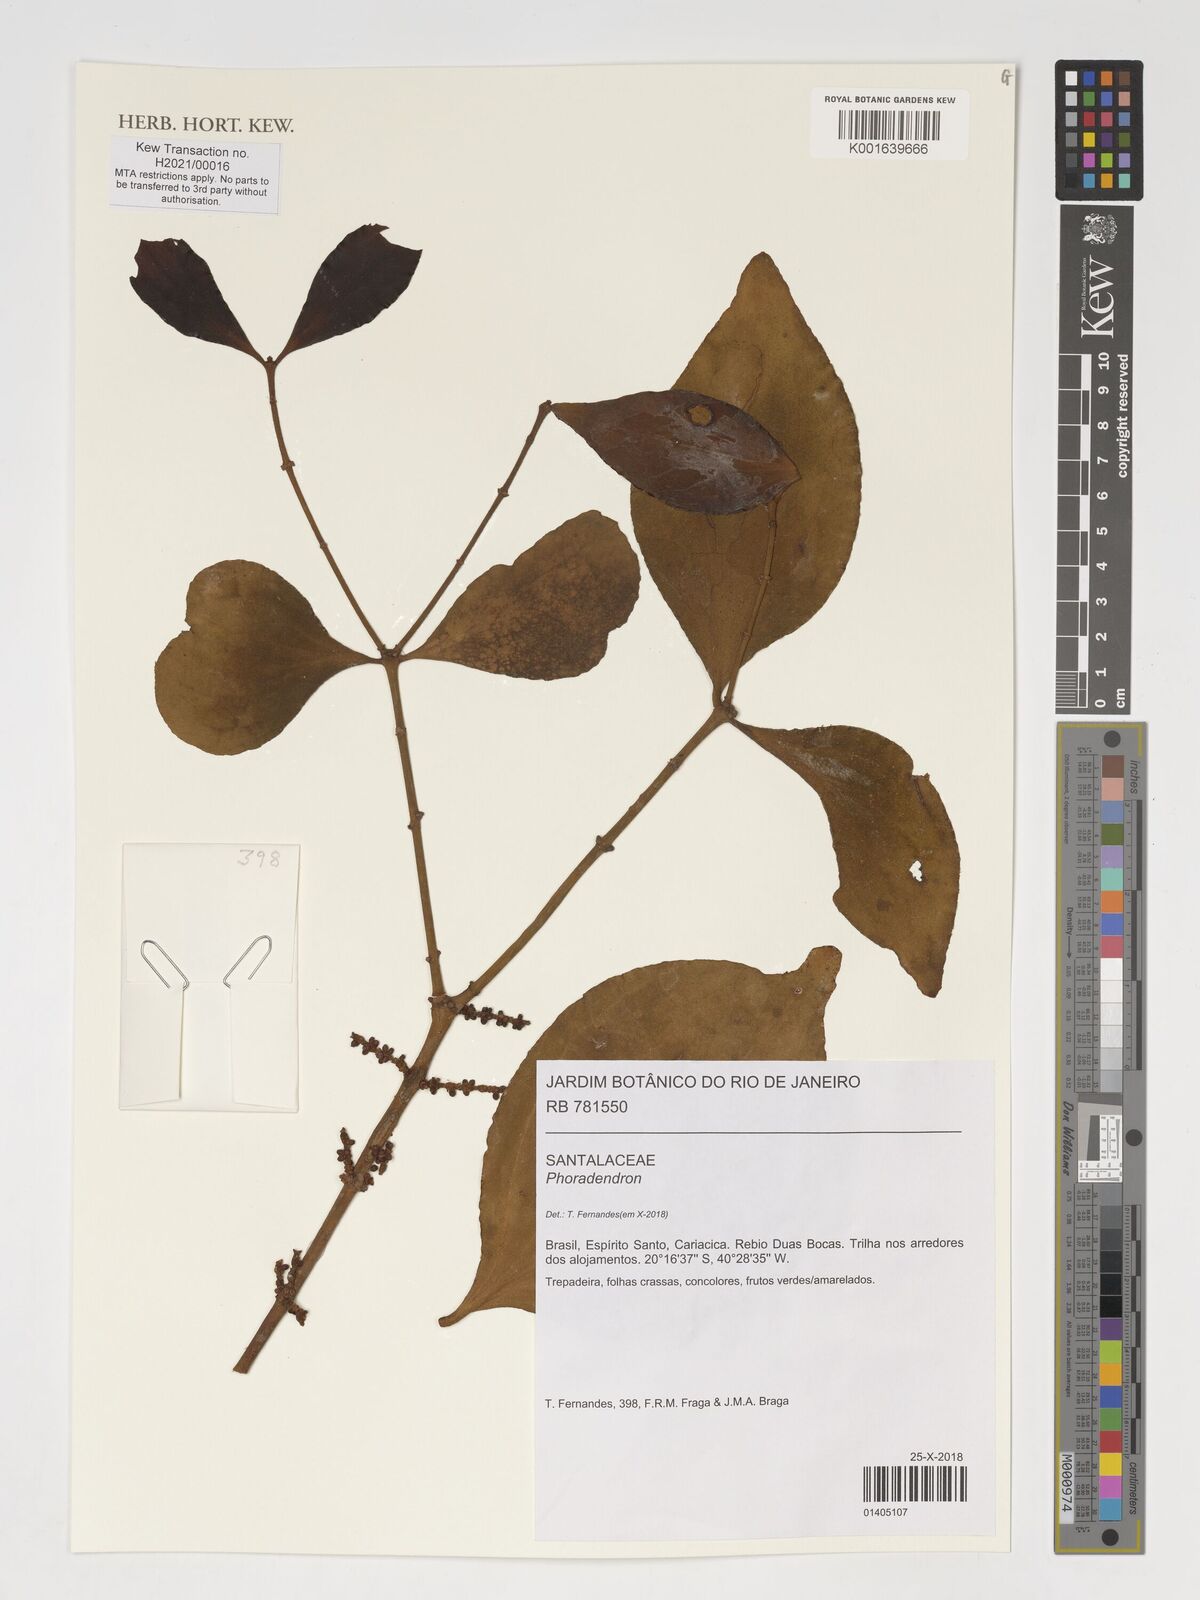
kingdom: Plantae
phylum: Tracheophyta
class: Magnoliopsida
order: Santalales
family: Viscaceae
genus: Phoradendron
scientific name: Phoradendron
